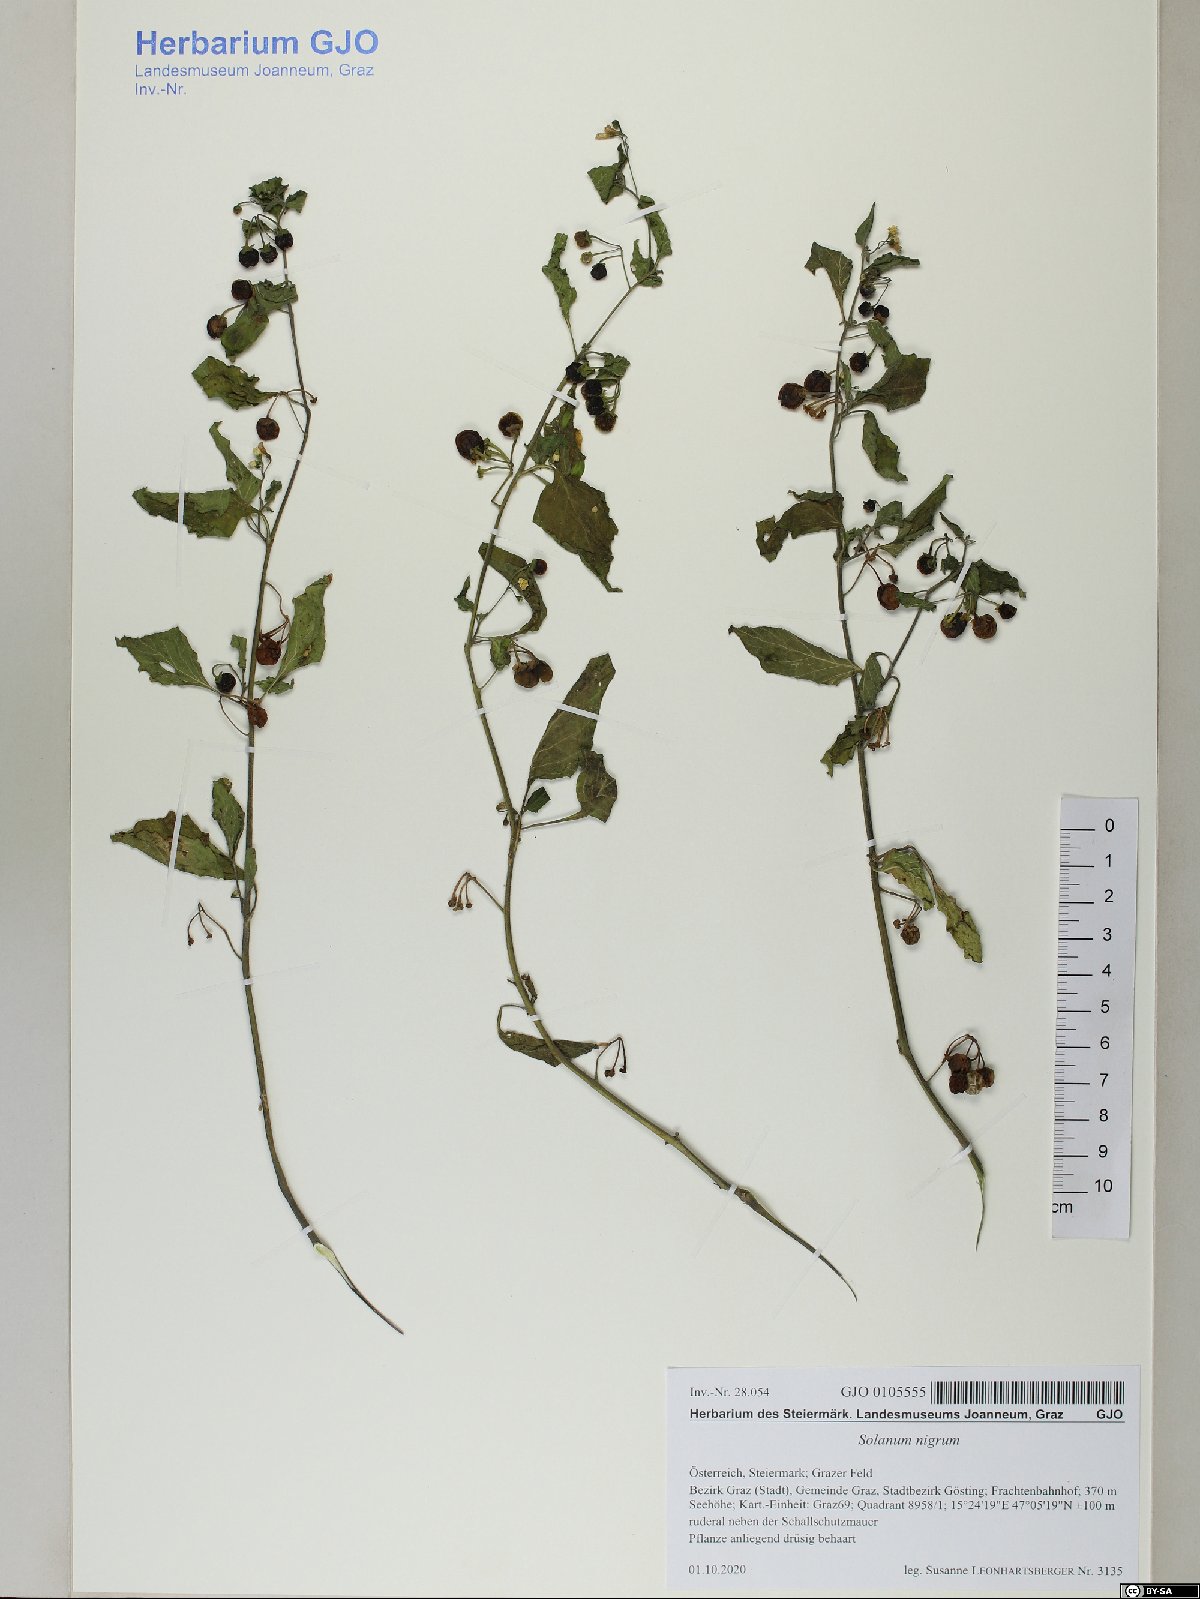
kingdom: Plantae
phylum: Tracheophyta
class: Magnoliopsida
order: Solanales
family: Solanaceae
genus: Solanum
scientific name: Solanum nigrum
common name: Black nightshade
